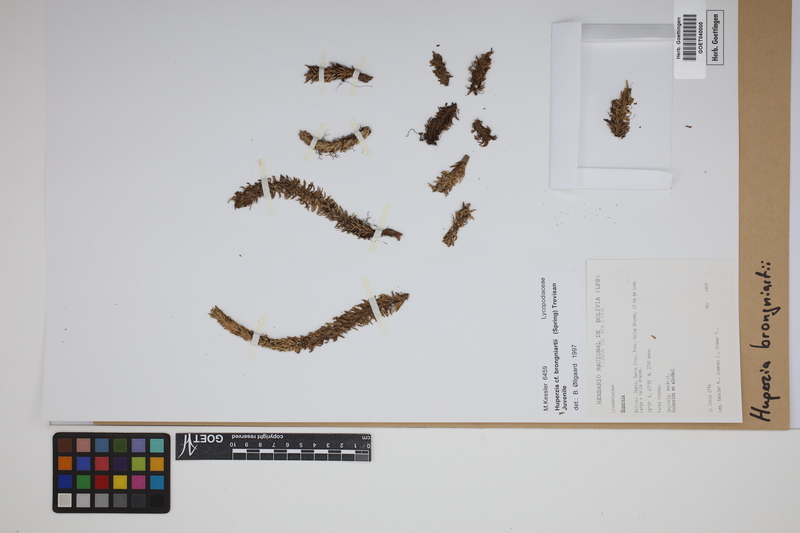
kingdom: Plantae
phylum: Tracheophyta
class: Lycopodiopsida
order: Lycopodiales
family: Lycopodiaceae
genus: Phlegmariurus
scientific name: Phlegmariurus brongniartii
